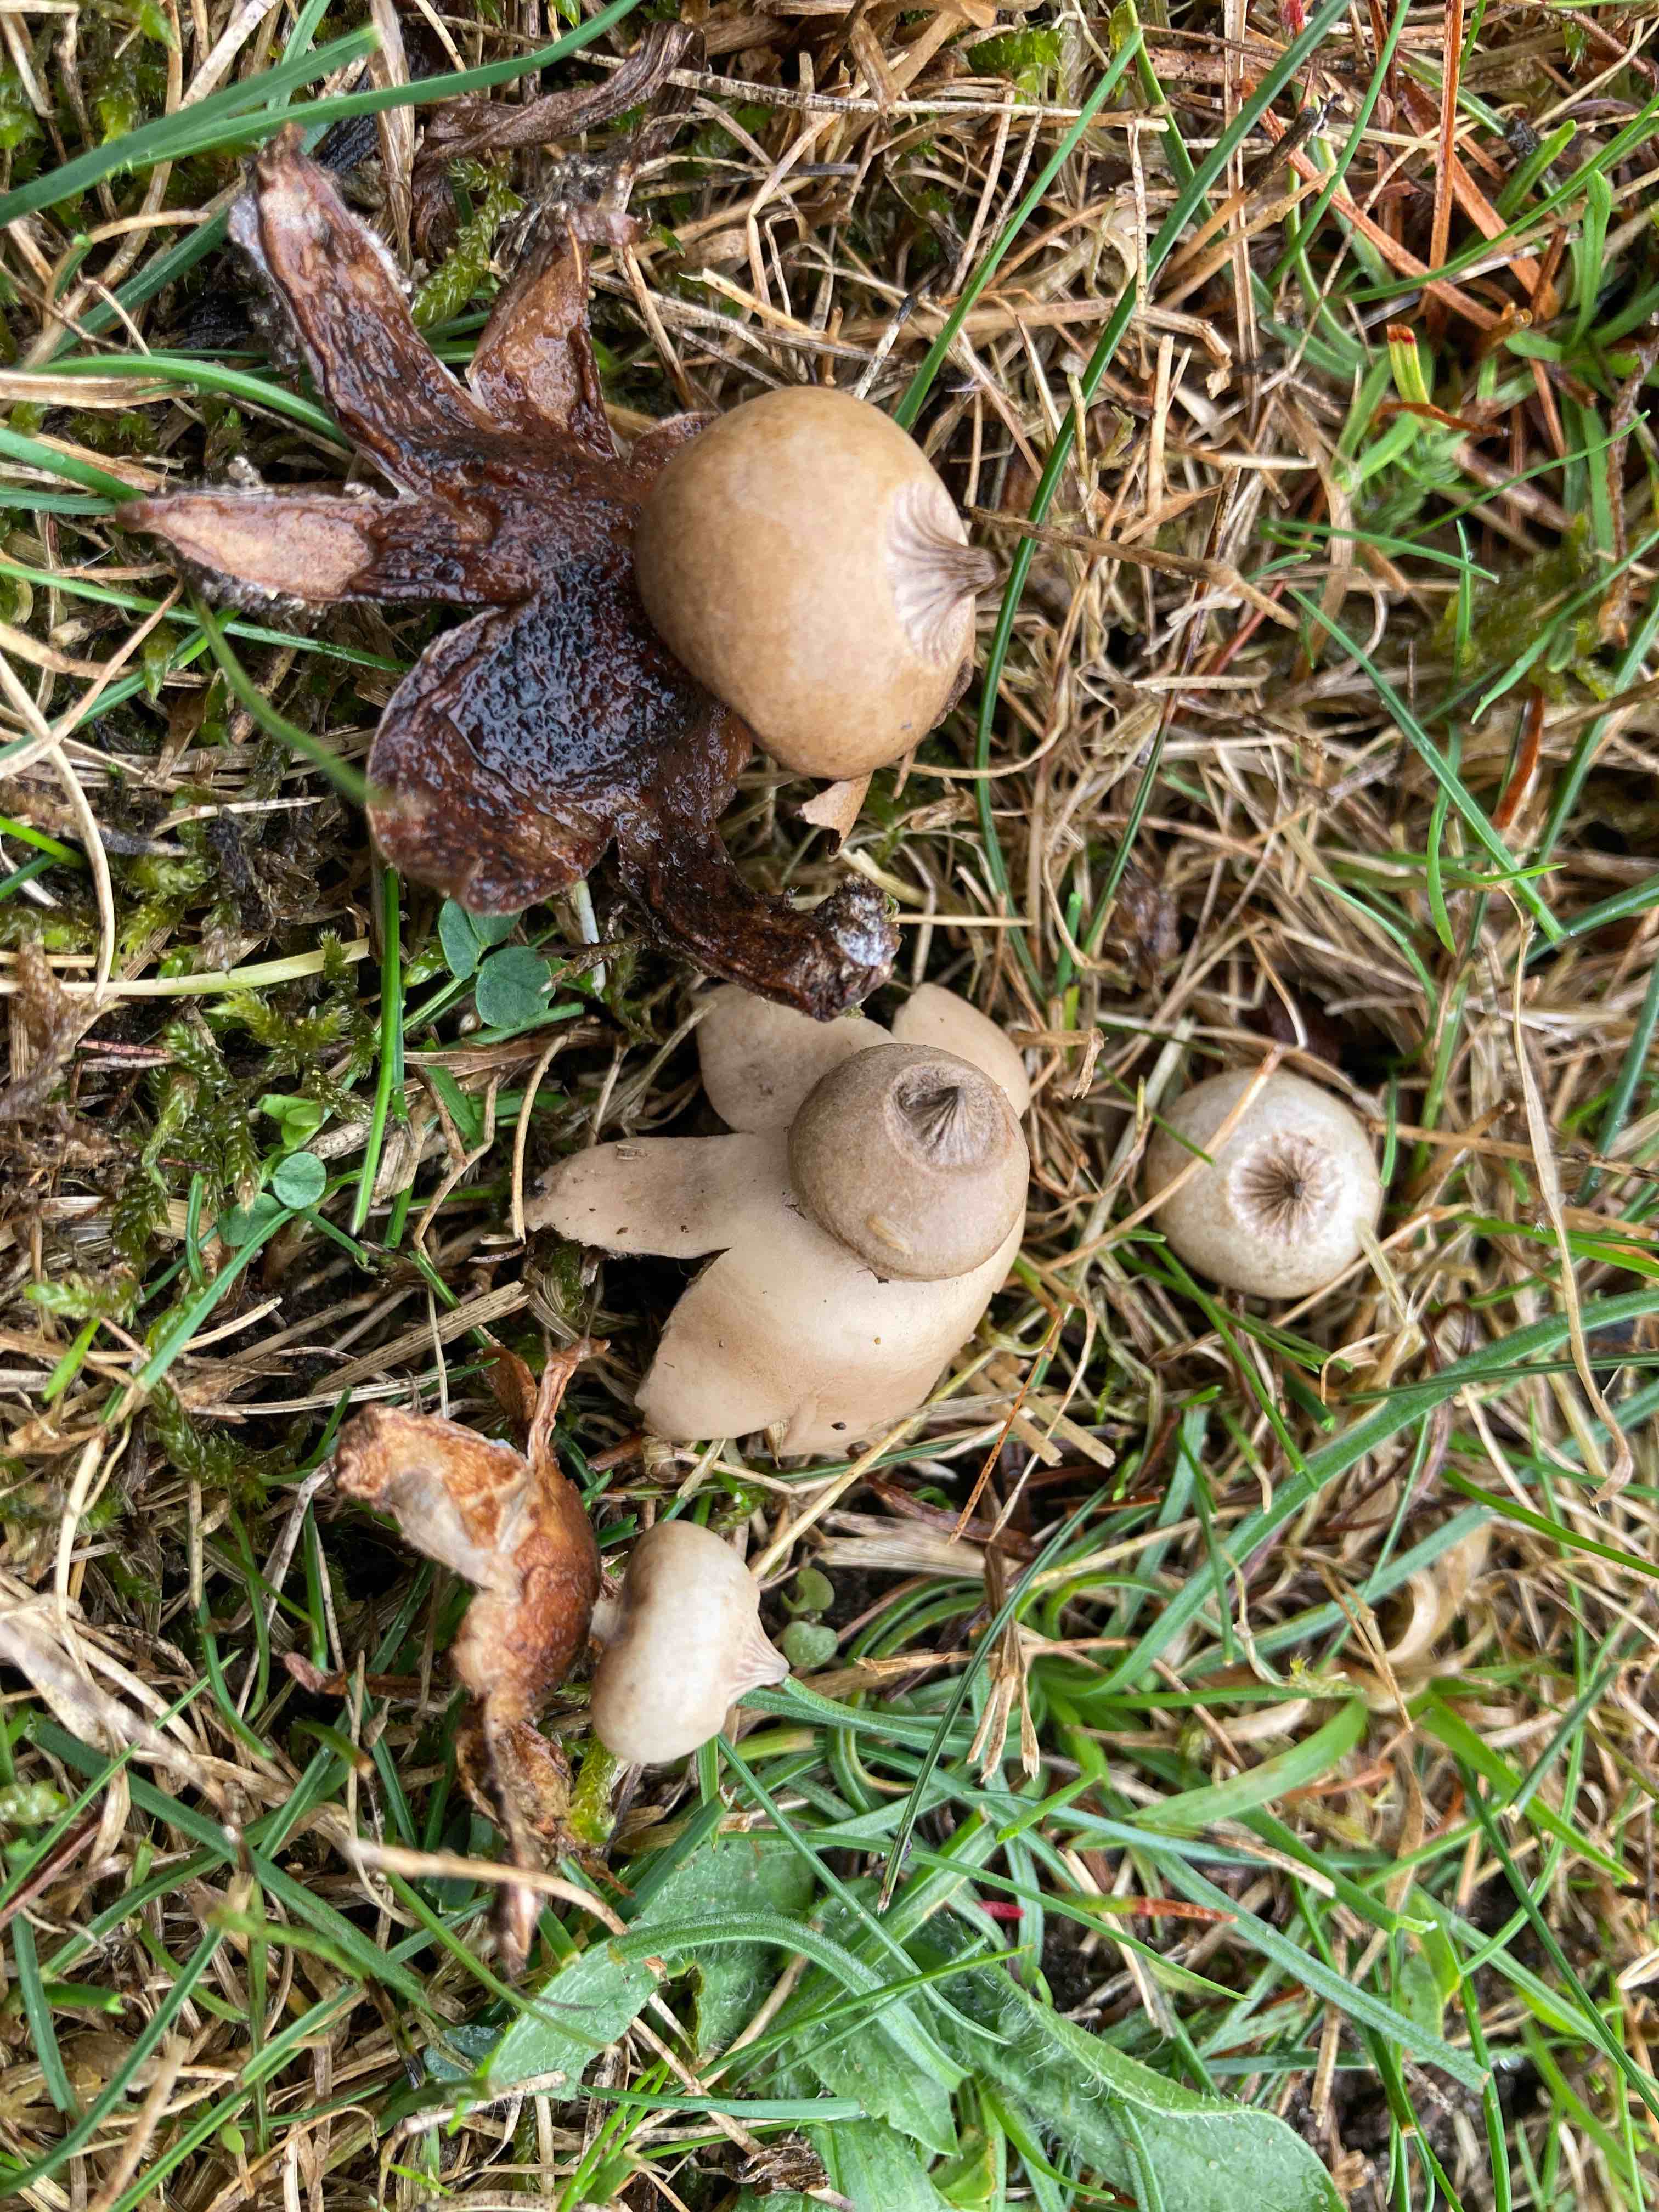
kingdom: Fungi
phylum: Basidiomycota
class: Agaricomycetes
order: Geastrales
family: Geastraceae
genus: Geastrum
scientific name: Geastrum striatum
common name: dværg-stjernebold
